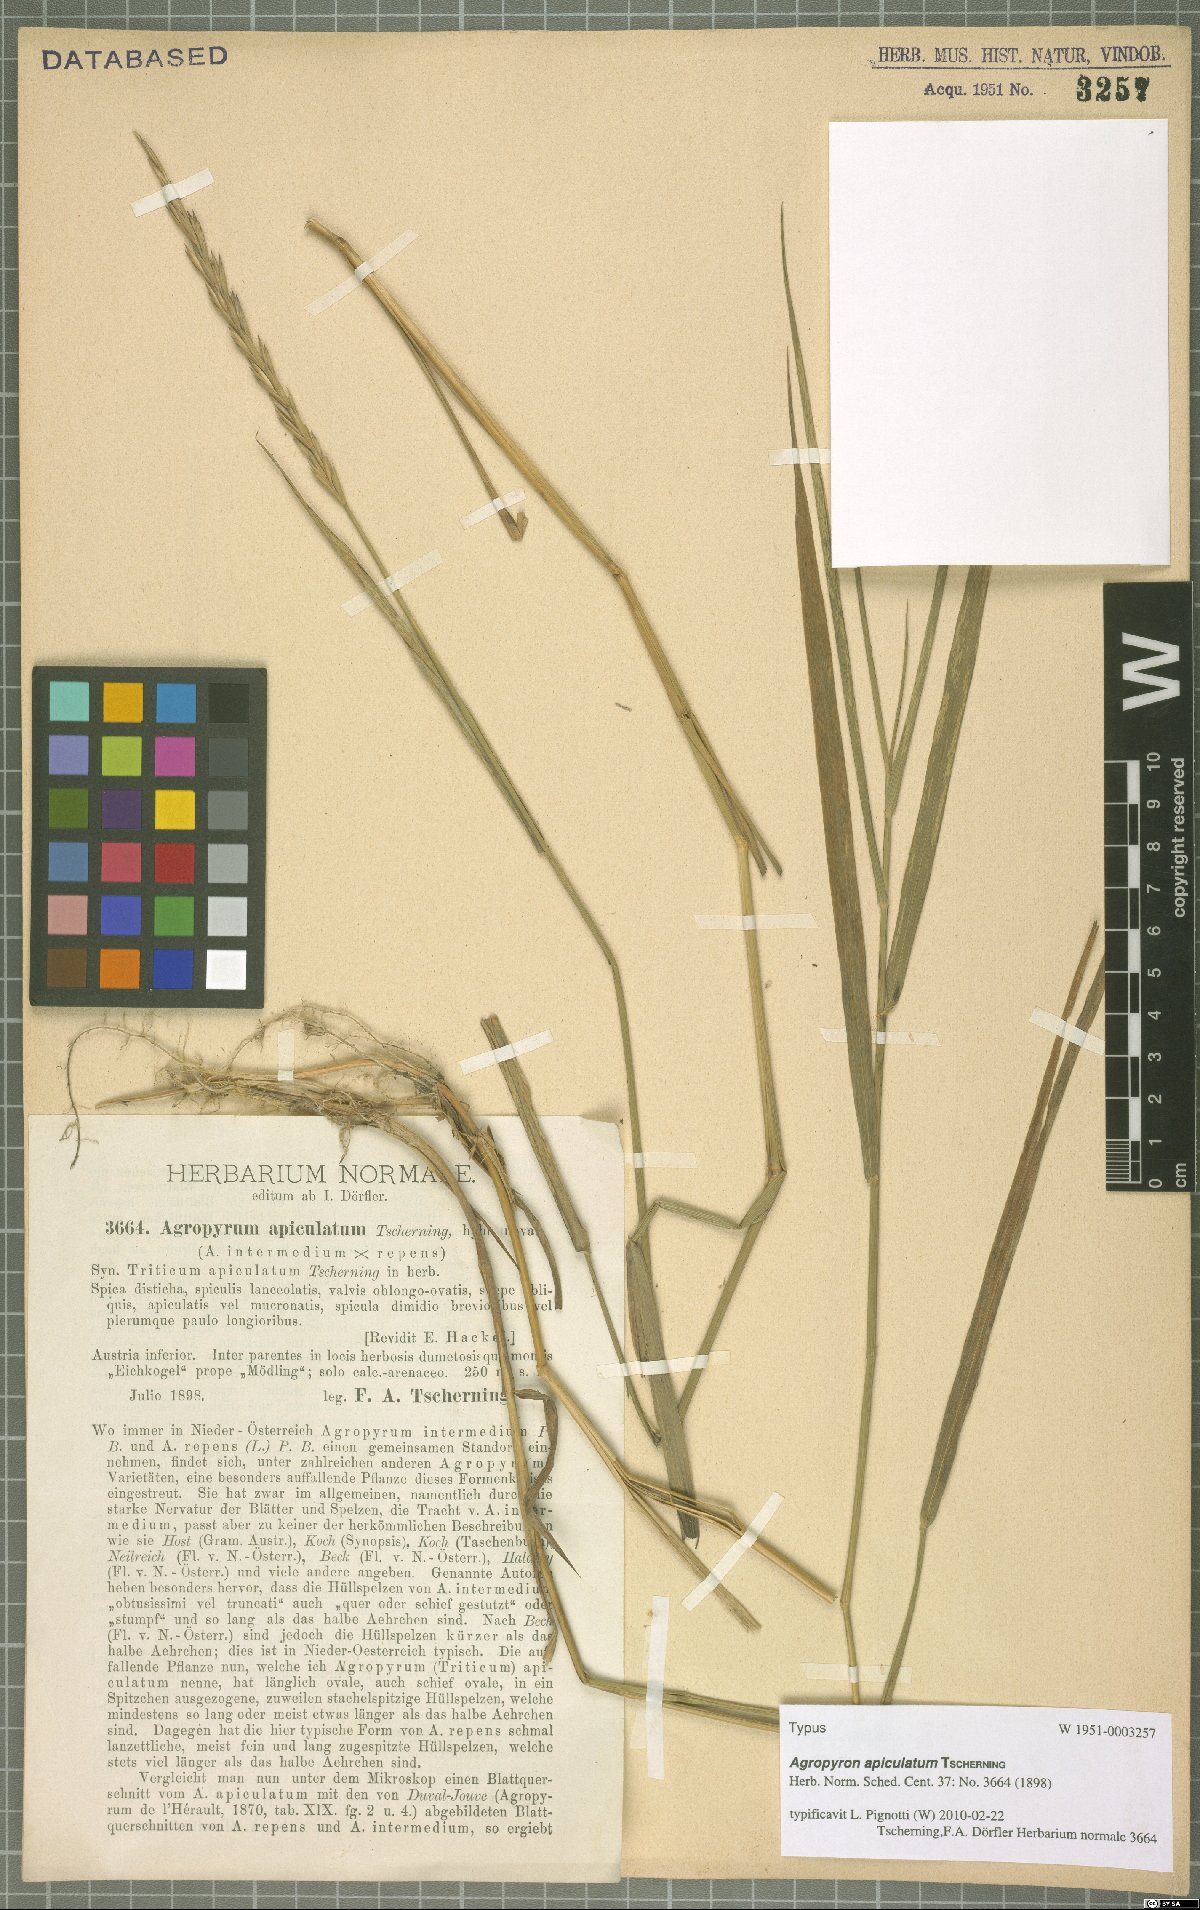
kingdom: Plantae
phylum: Tracheophyta
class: Liliopsida
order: Poales
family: Poaceae
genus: Elymus
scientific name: Elymus apiculatus
